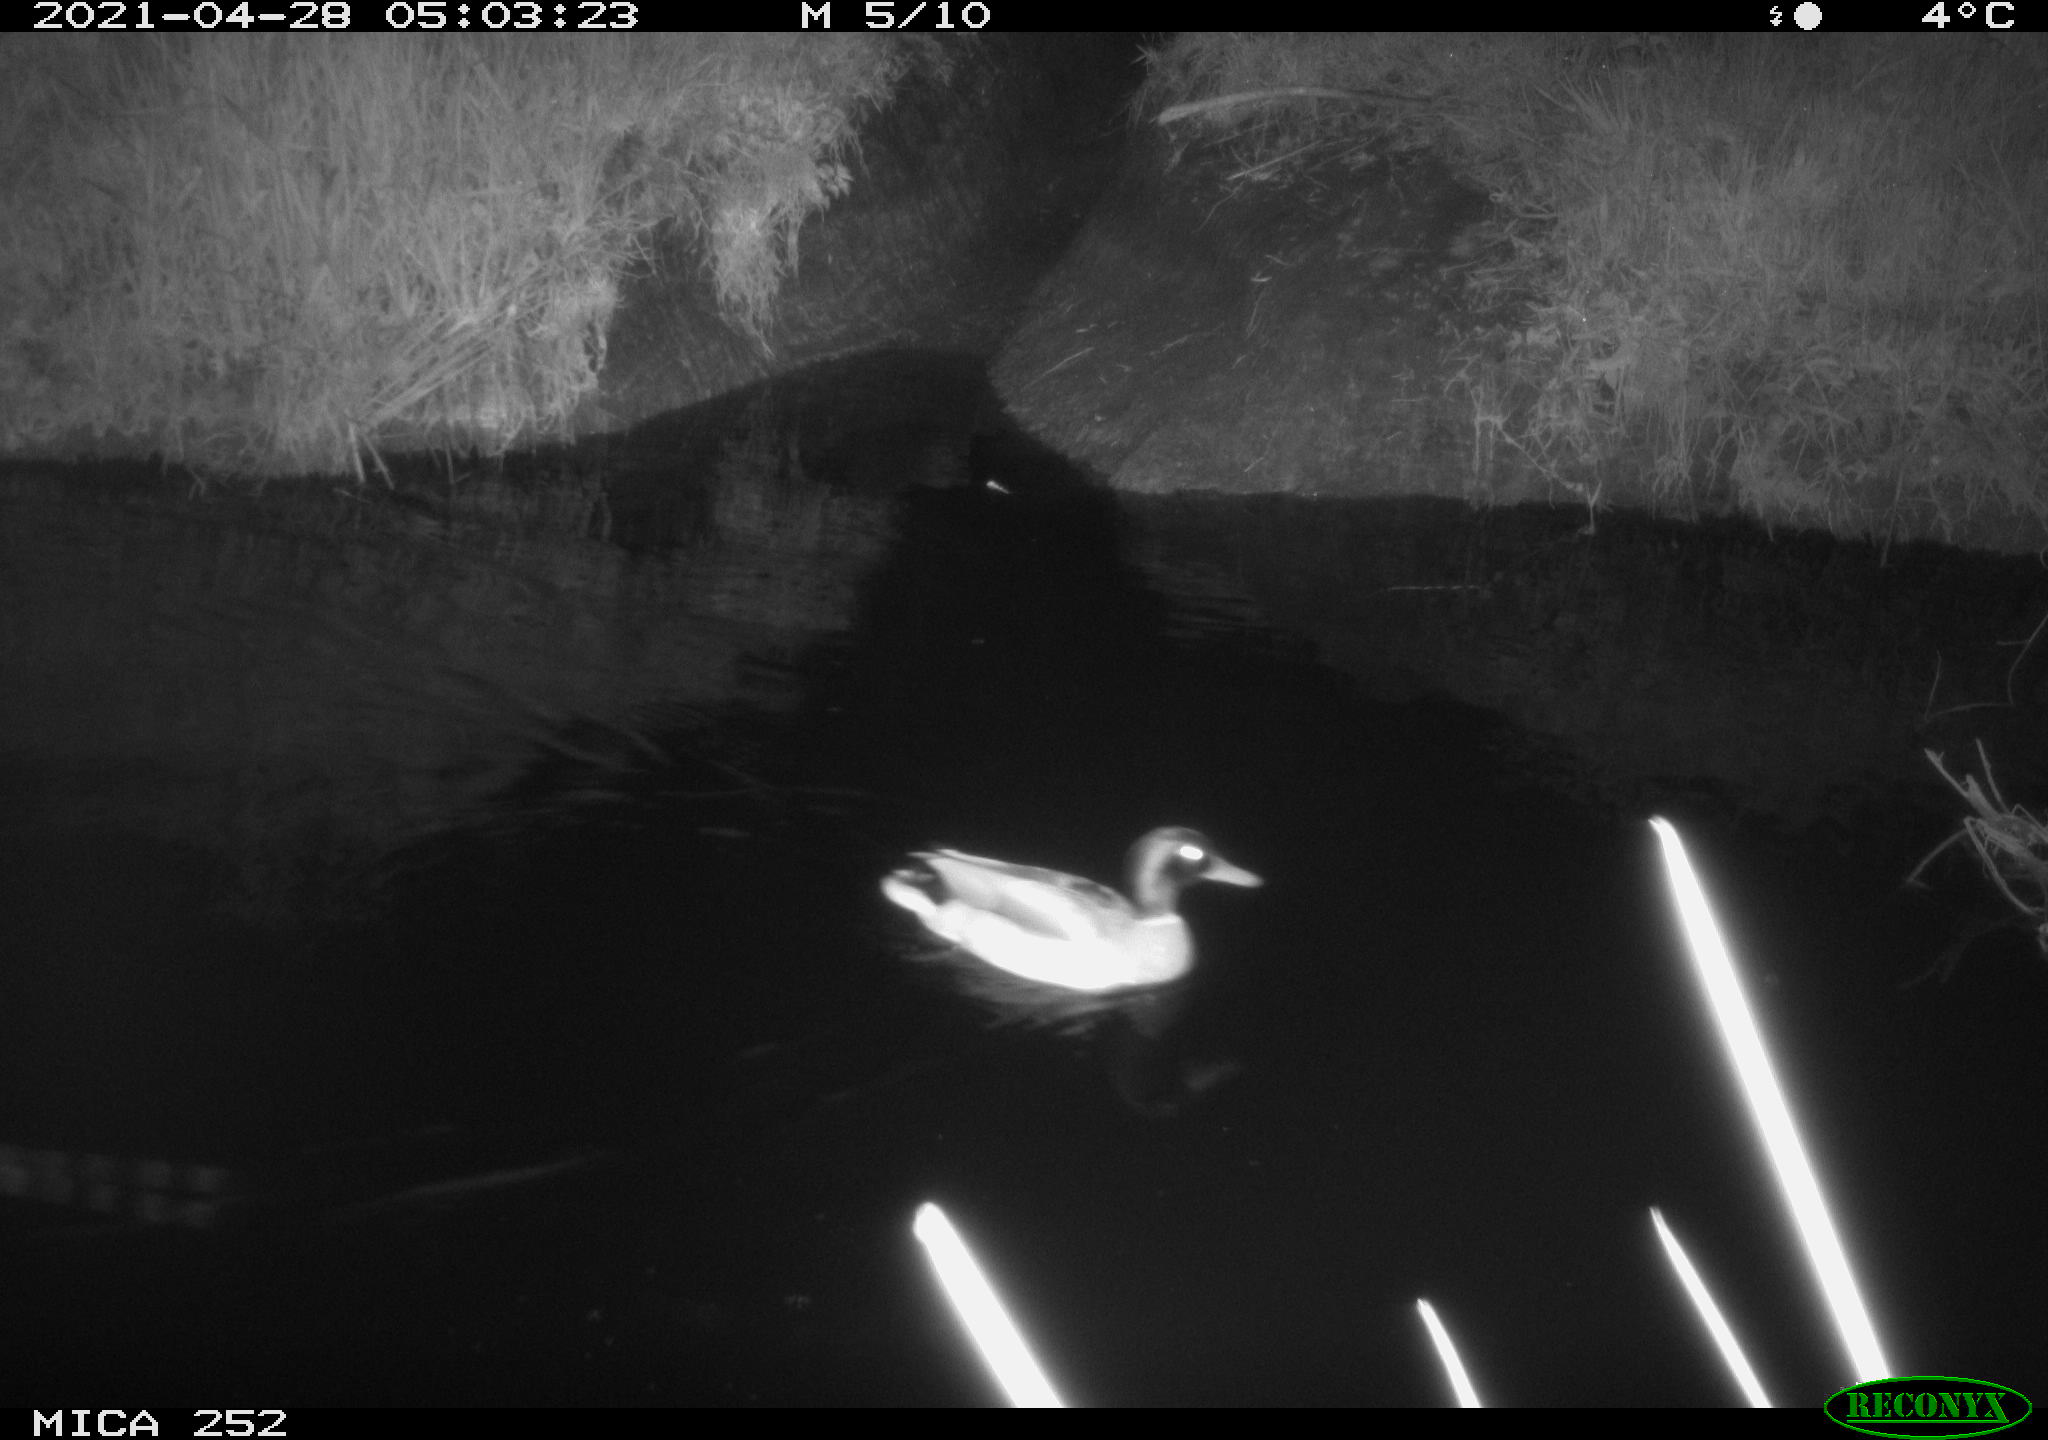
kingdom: Animalia
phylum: Chordata
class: Aves
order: Anseriformes
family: Anatidae
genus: Anas
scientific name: Anas
